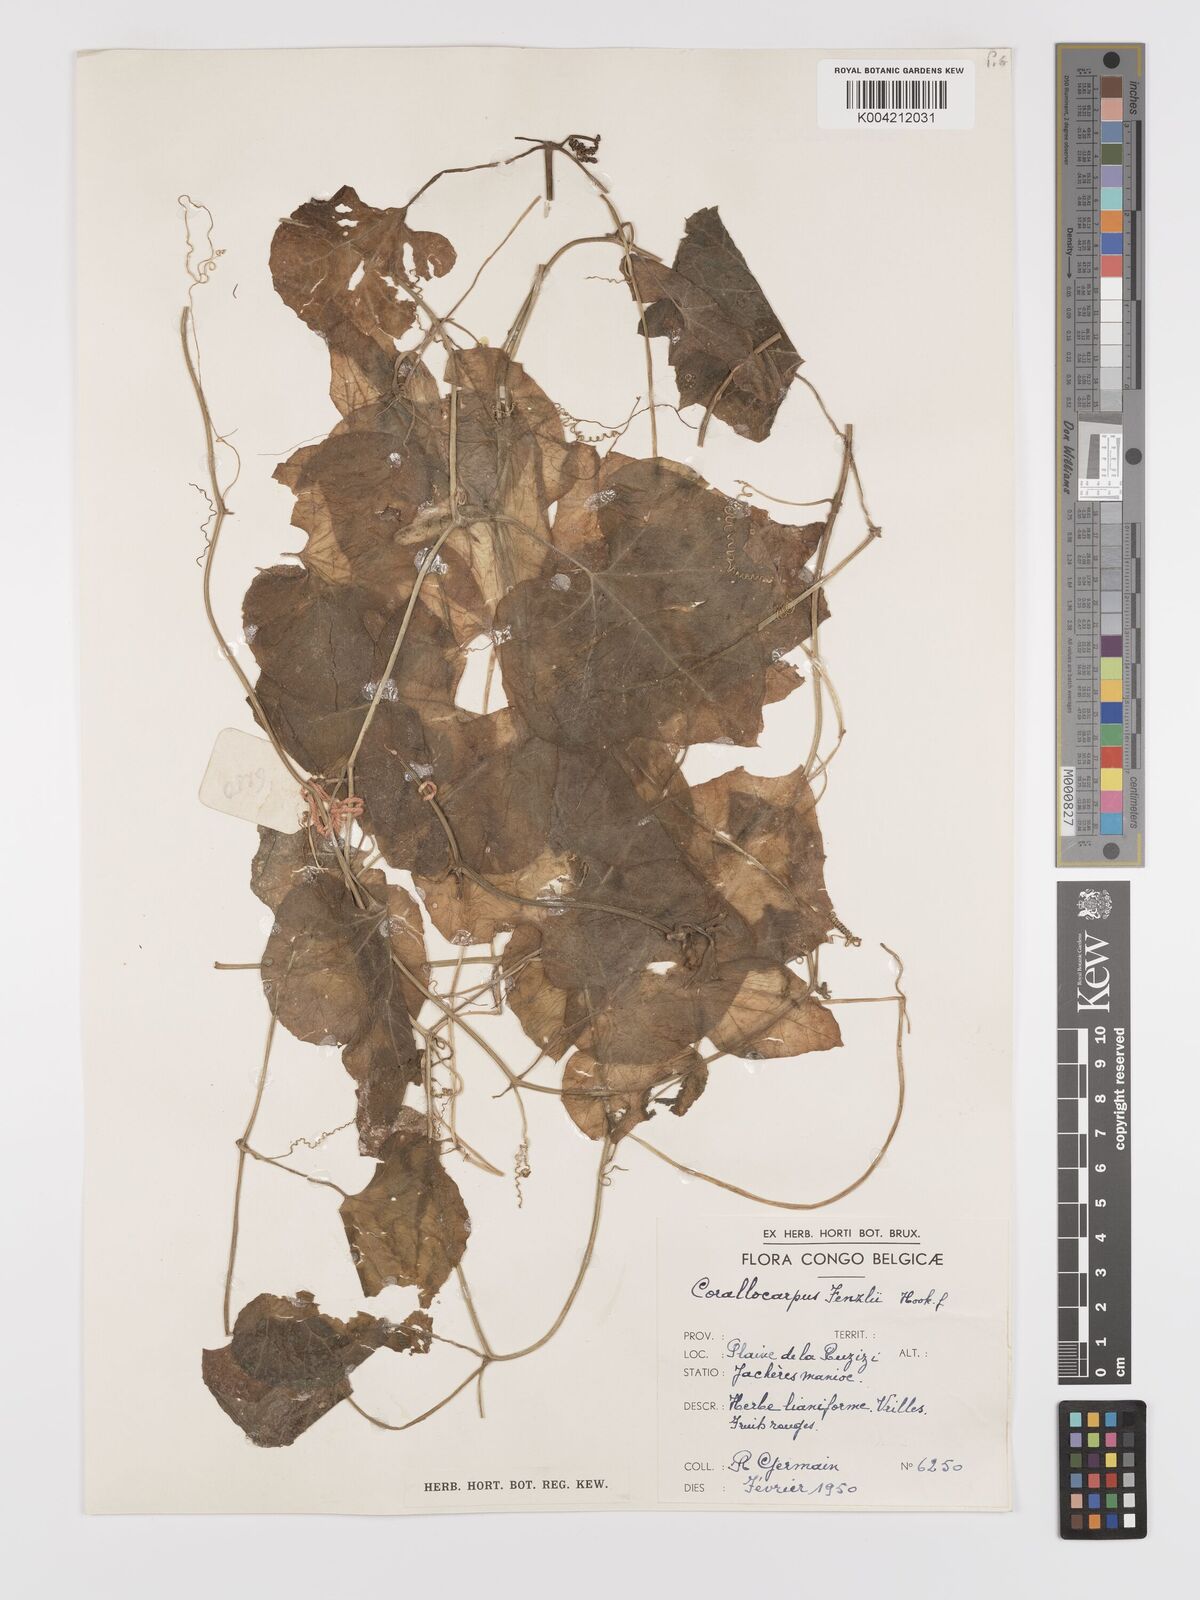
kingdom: Plantae
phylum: Tracheophyta
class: Magnoliopsida
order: Cucurbitales
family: Cucurbitaceae
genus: Kedrostis
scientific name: Kedrostis leloja
